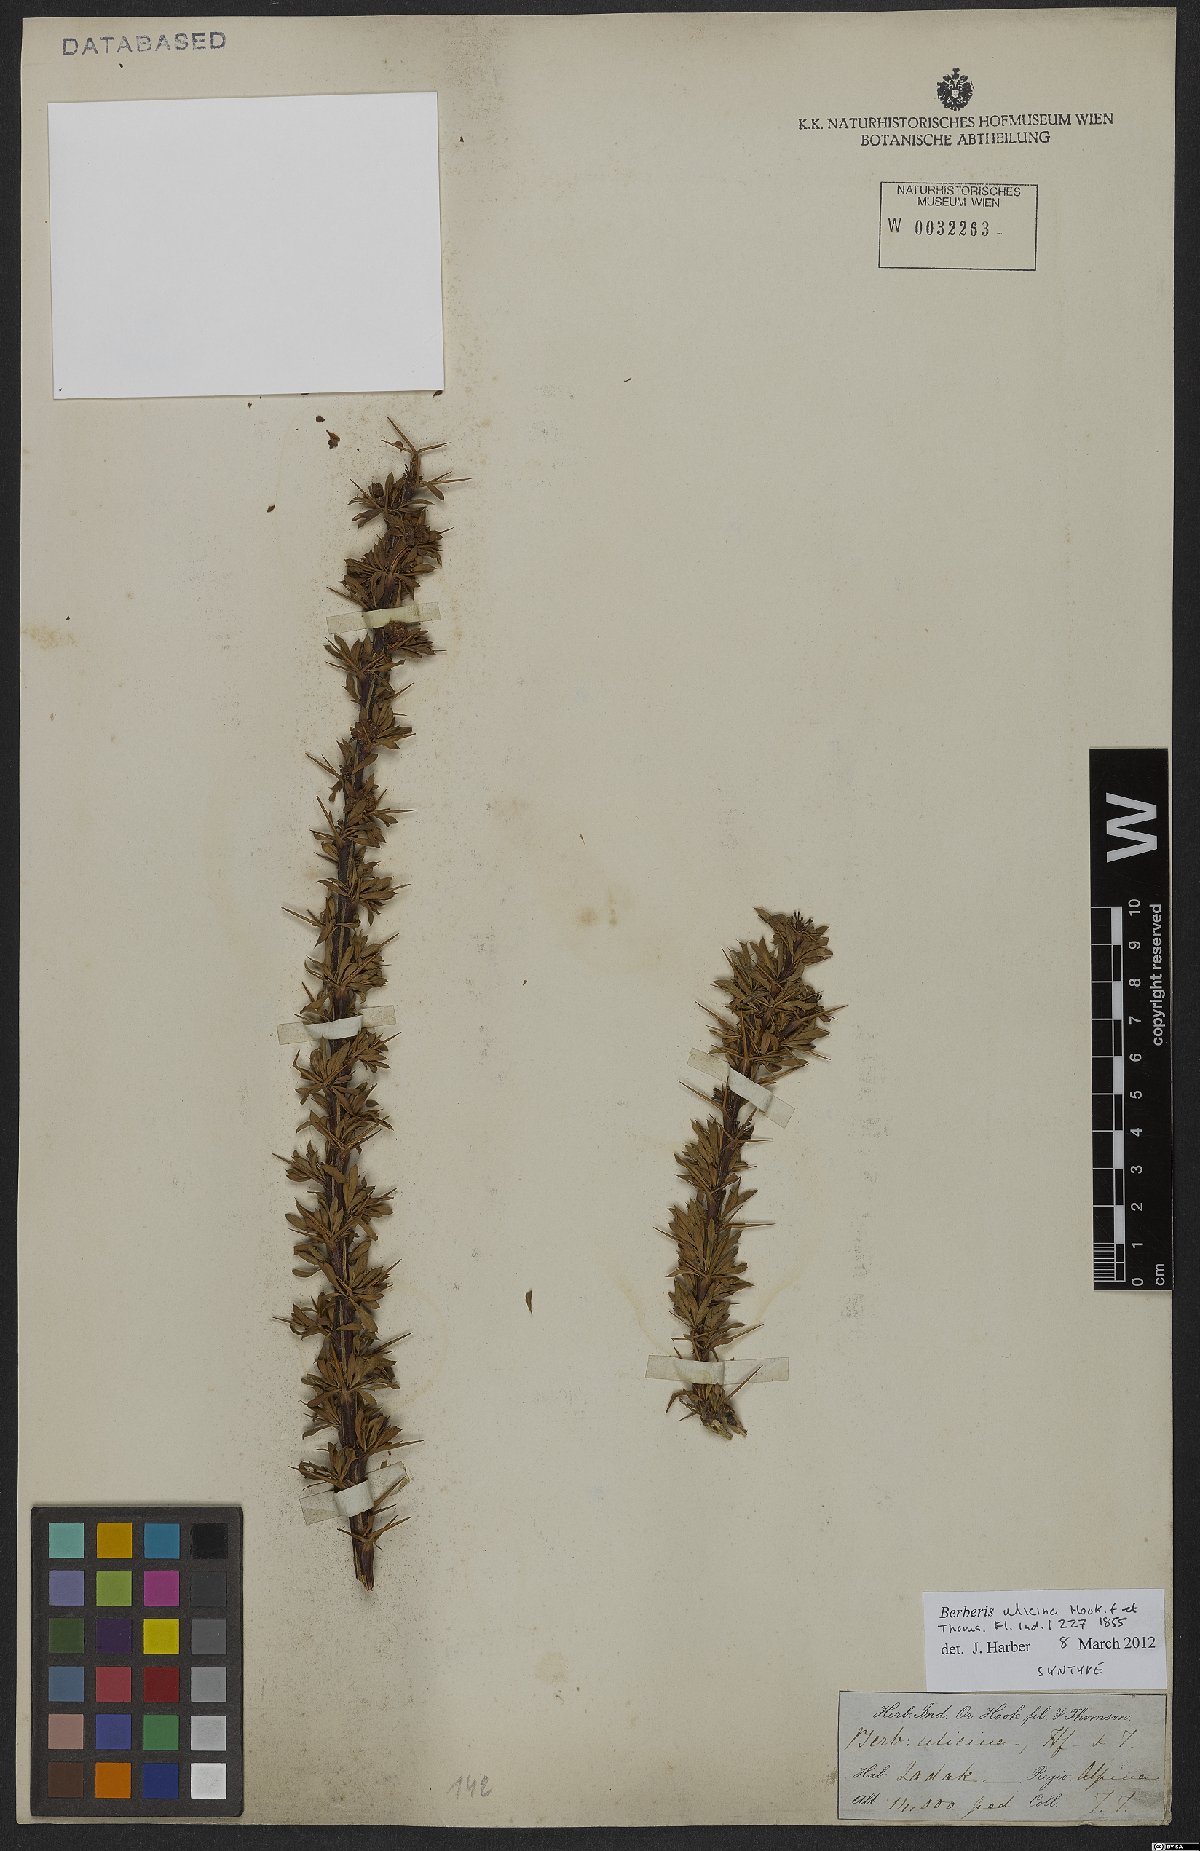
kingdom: Plantae
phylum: Tracheophyta
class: Magnoliopsida
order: Ranunculales
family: Berberidaceae
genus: Berberis
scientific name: Berberis ulicina
